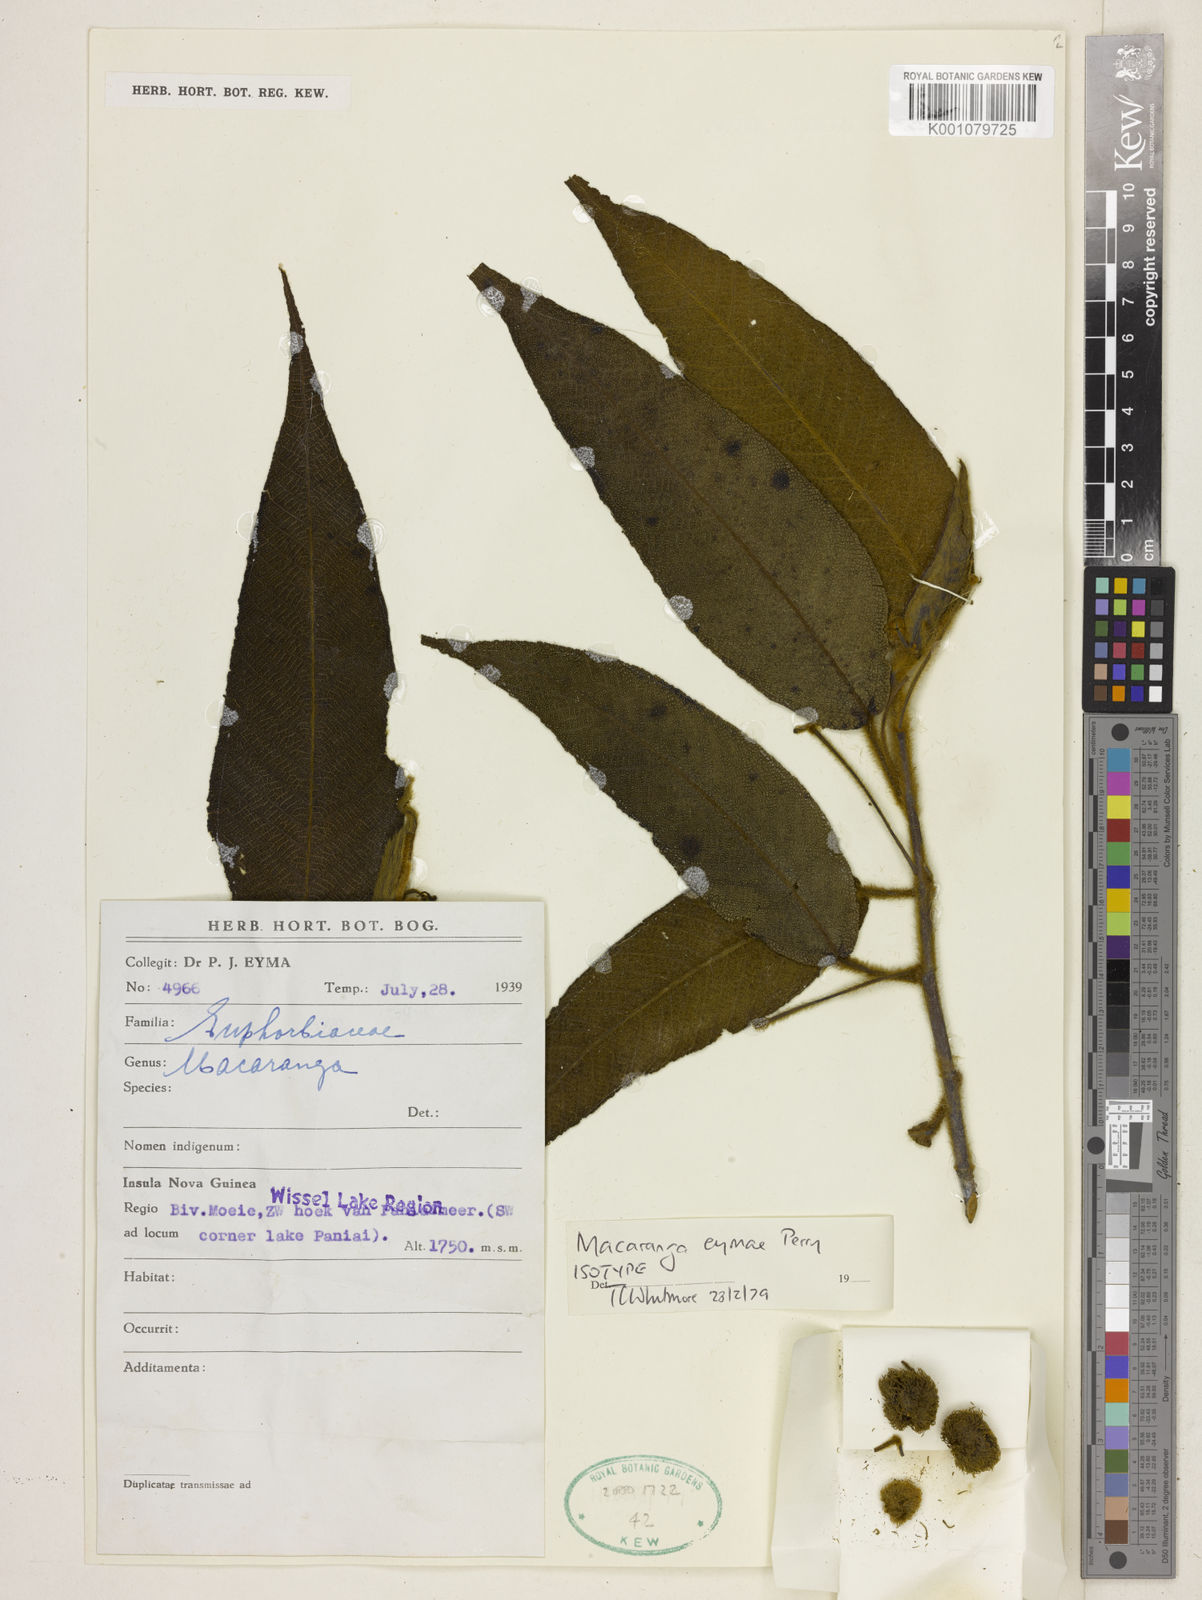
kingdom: Plantae
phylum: Tracheophyta
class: Magnoliopsida
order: Malpighiales
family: Euphorbiaceae
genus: Macaranga
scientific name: Macaranga eymae
